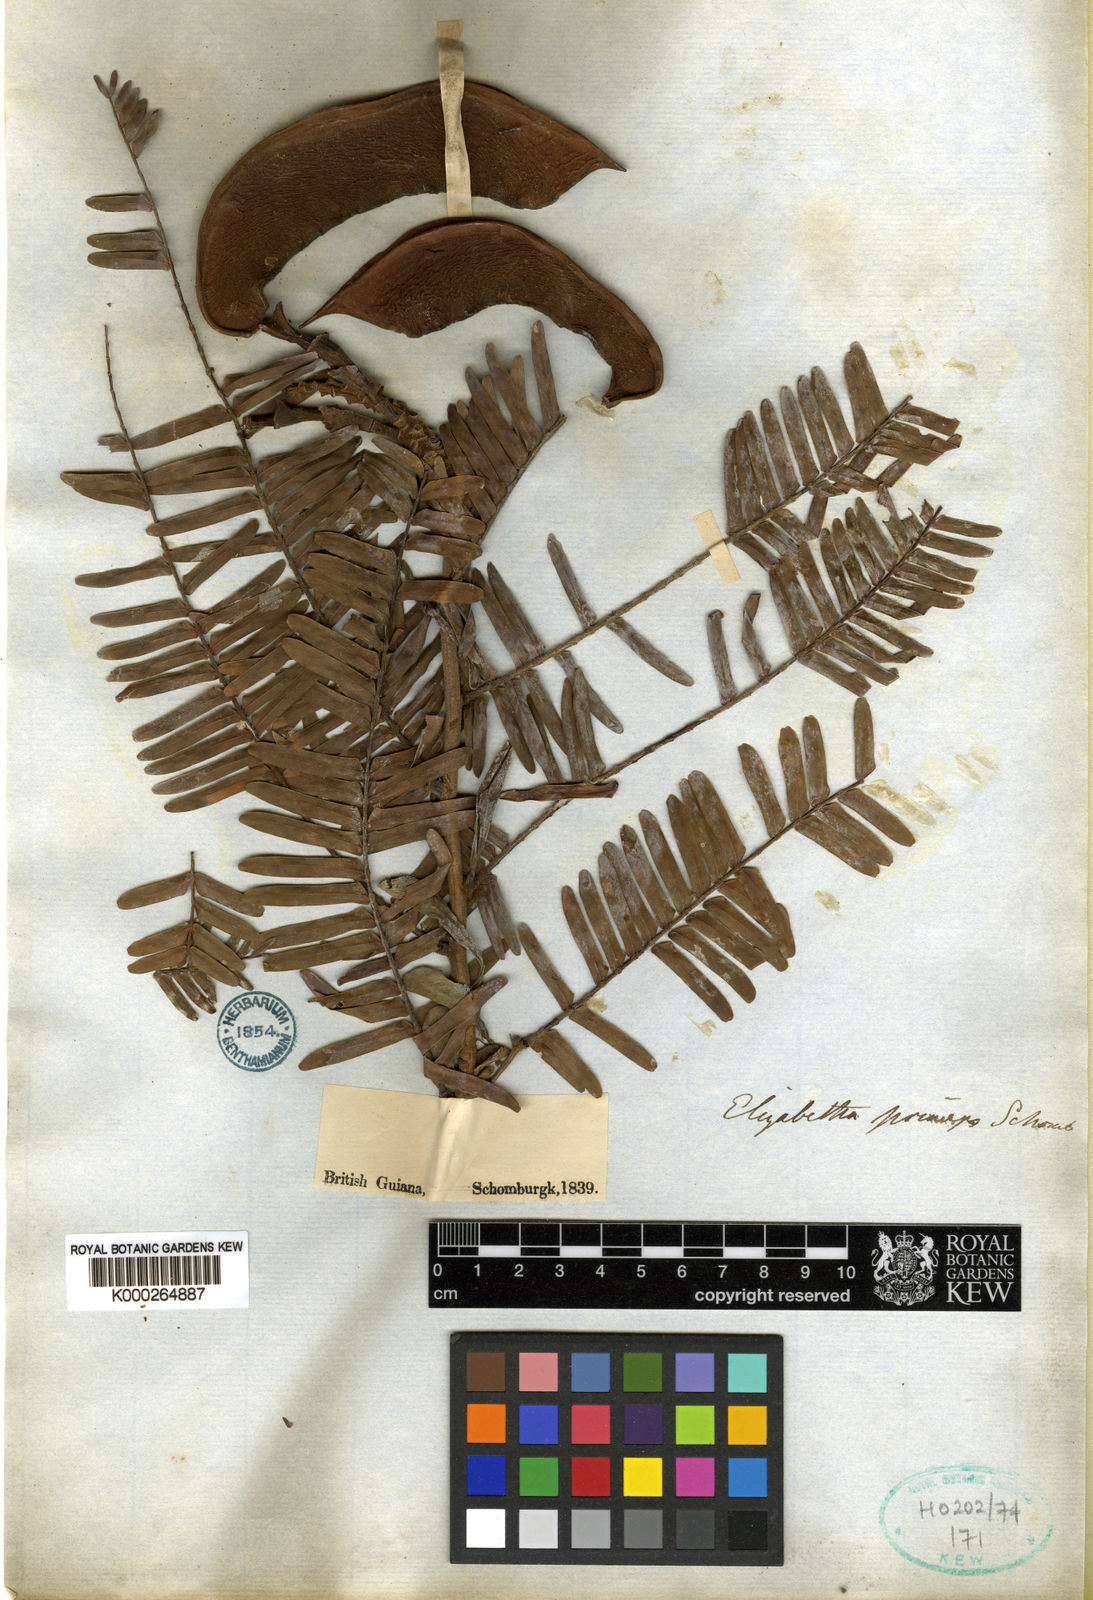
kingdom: Plantae
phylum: Tracheophyta
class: Magnoliopsida
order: Fabales
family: Fabaceae
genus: Paloue
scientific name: Paloue princeps
